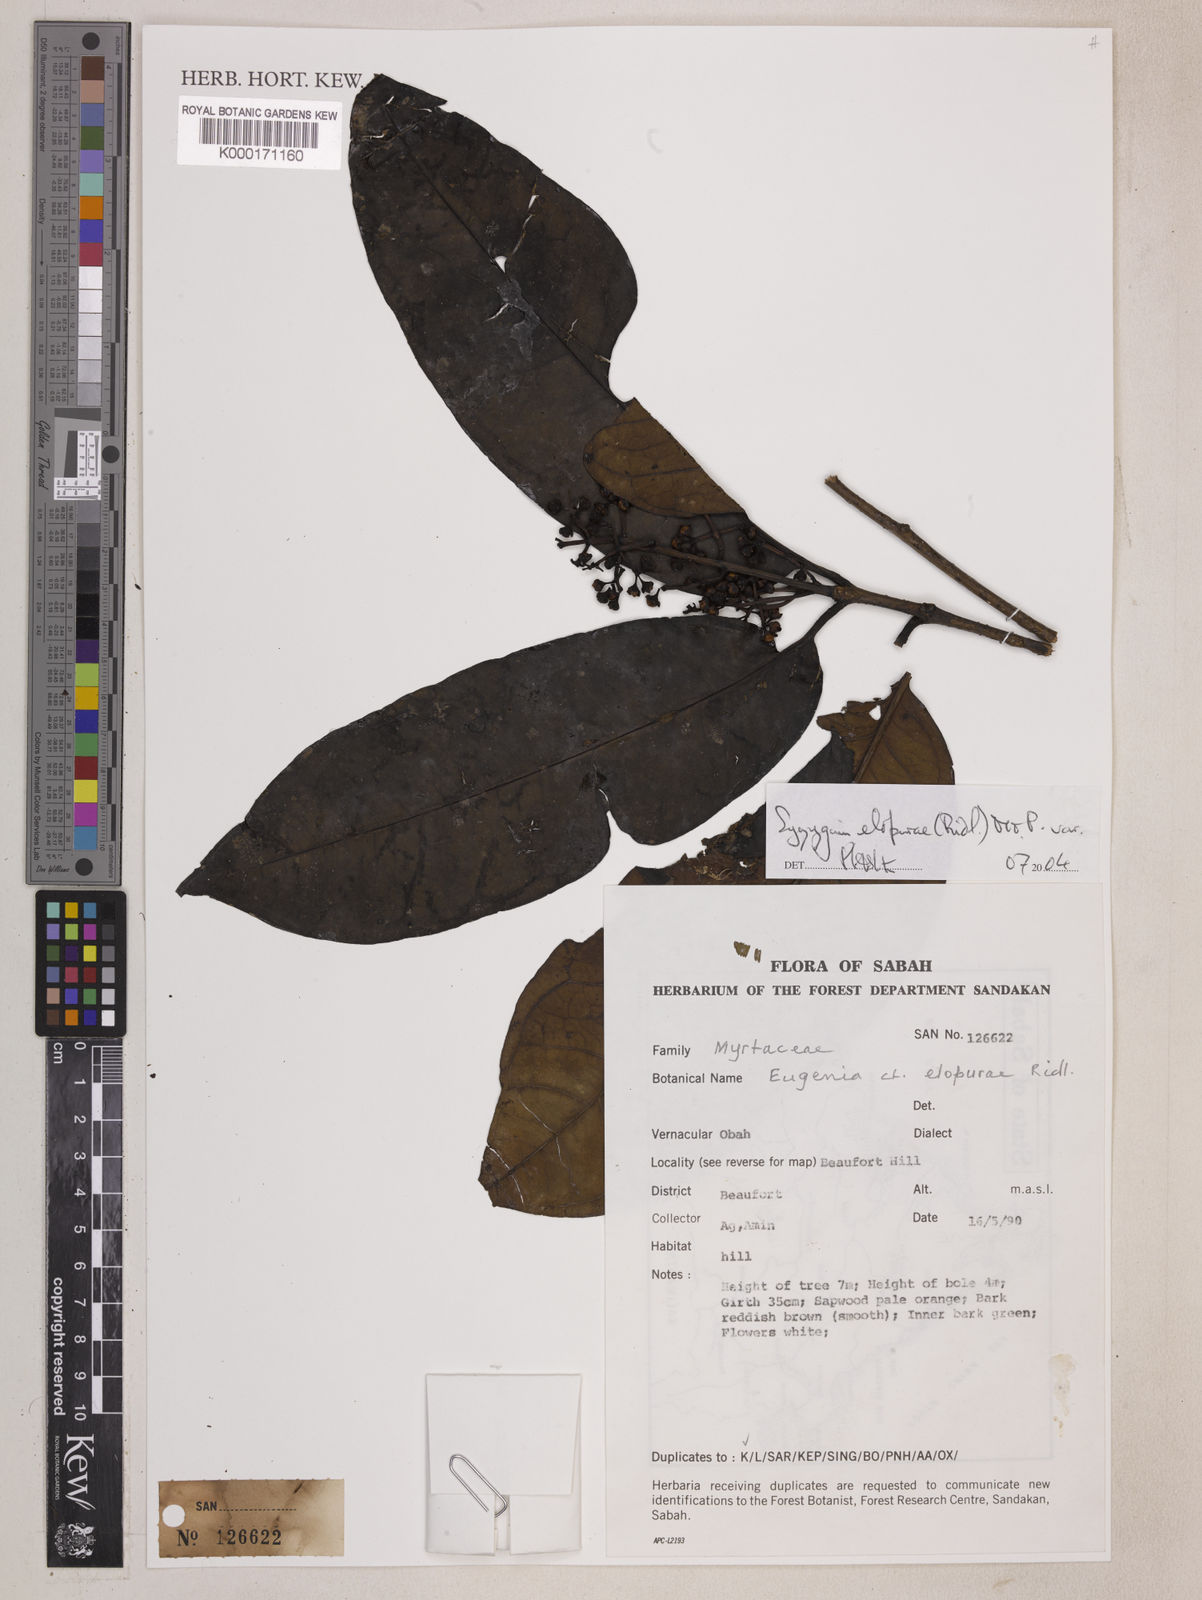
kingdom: Plantae
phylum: Tracheophyta
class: Magnoliopsida
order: Myrtales
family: Myrtaceae
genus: Syzygium
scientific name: Syzygium elopurae
